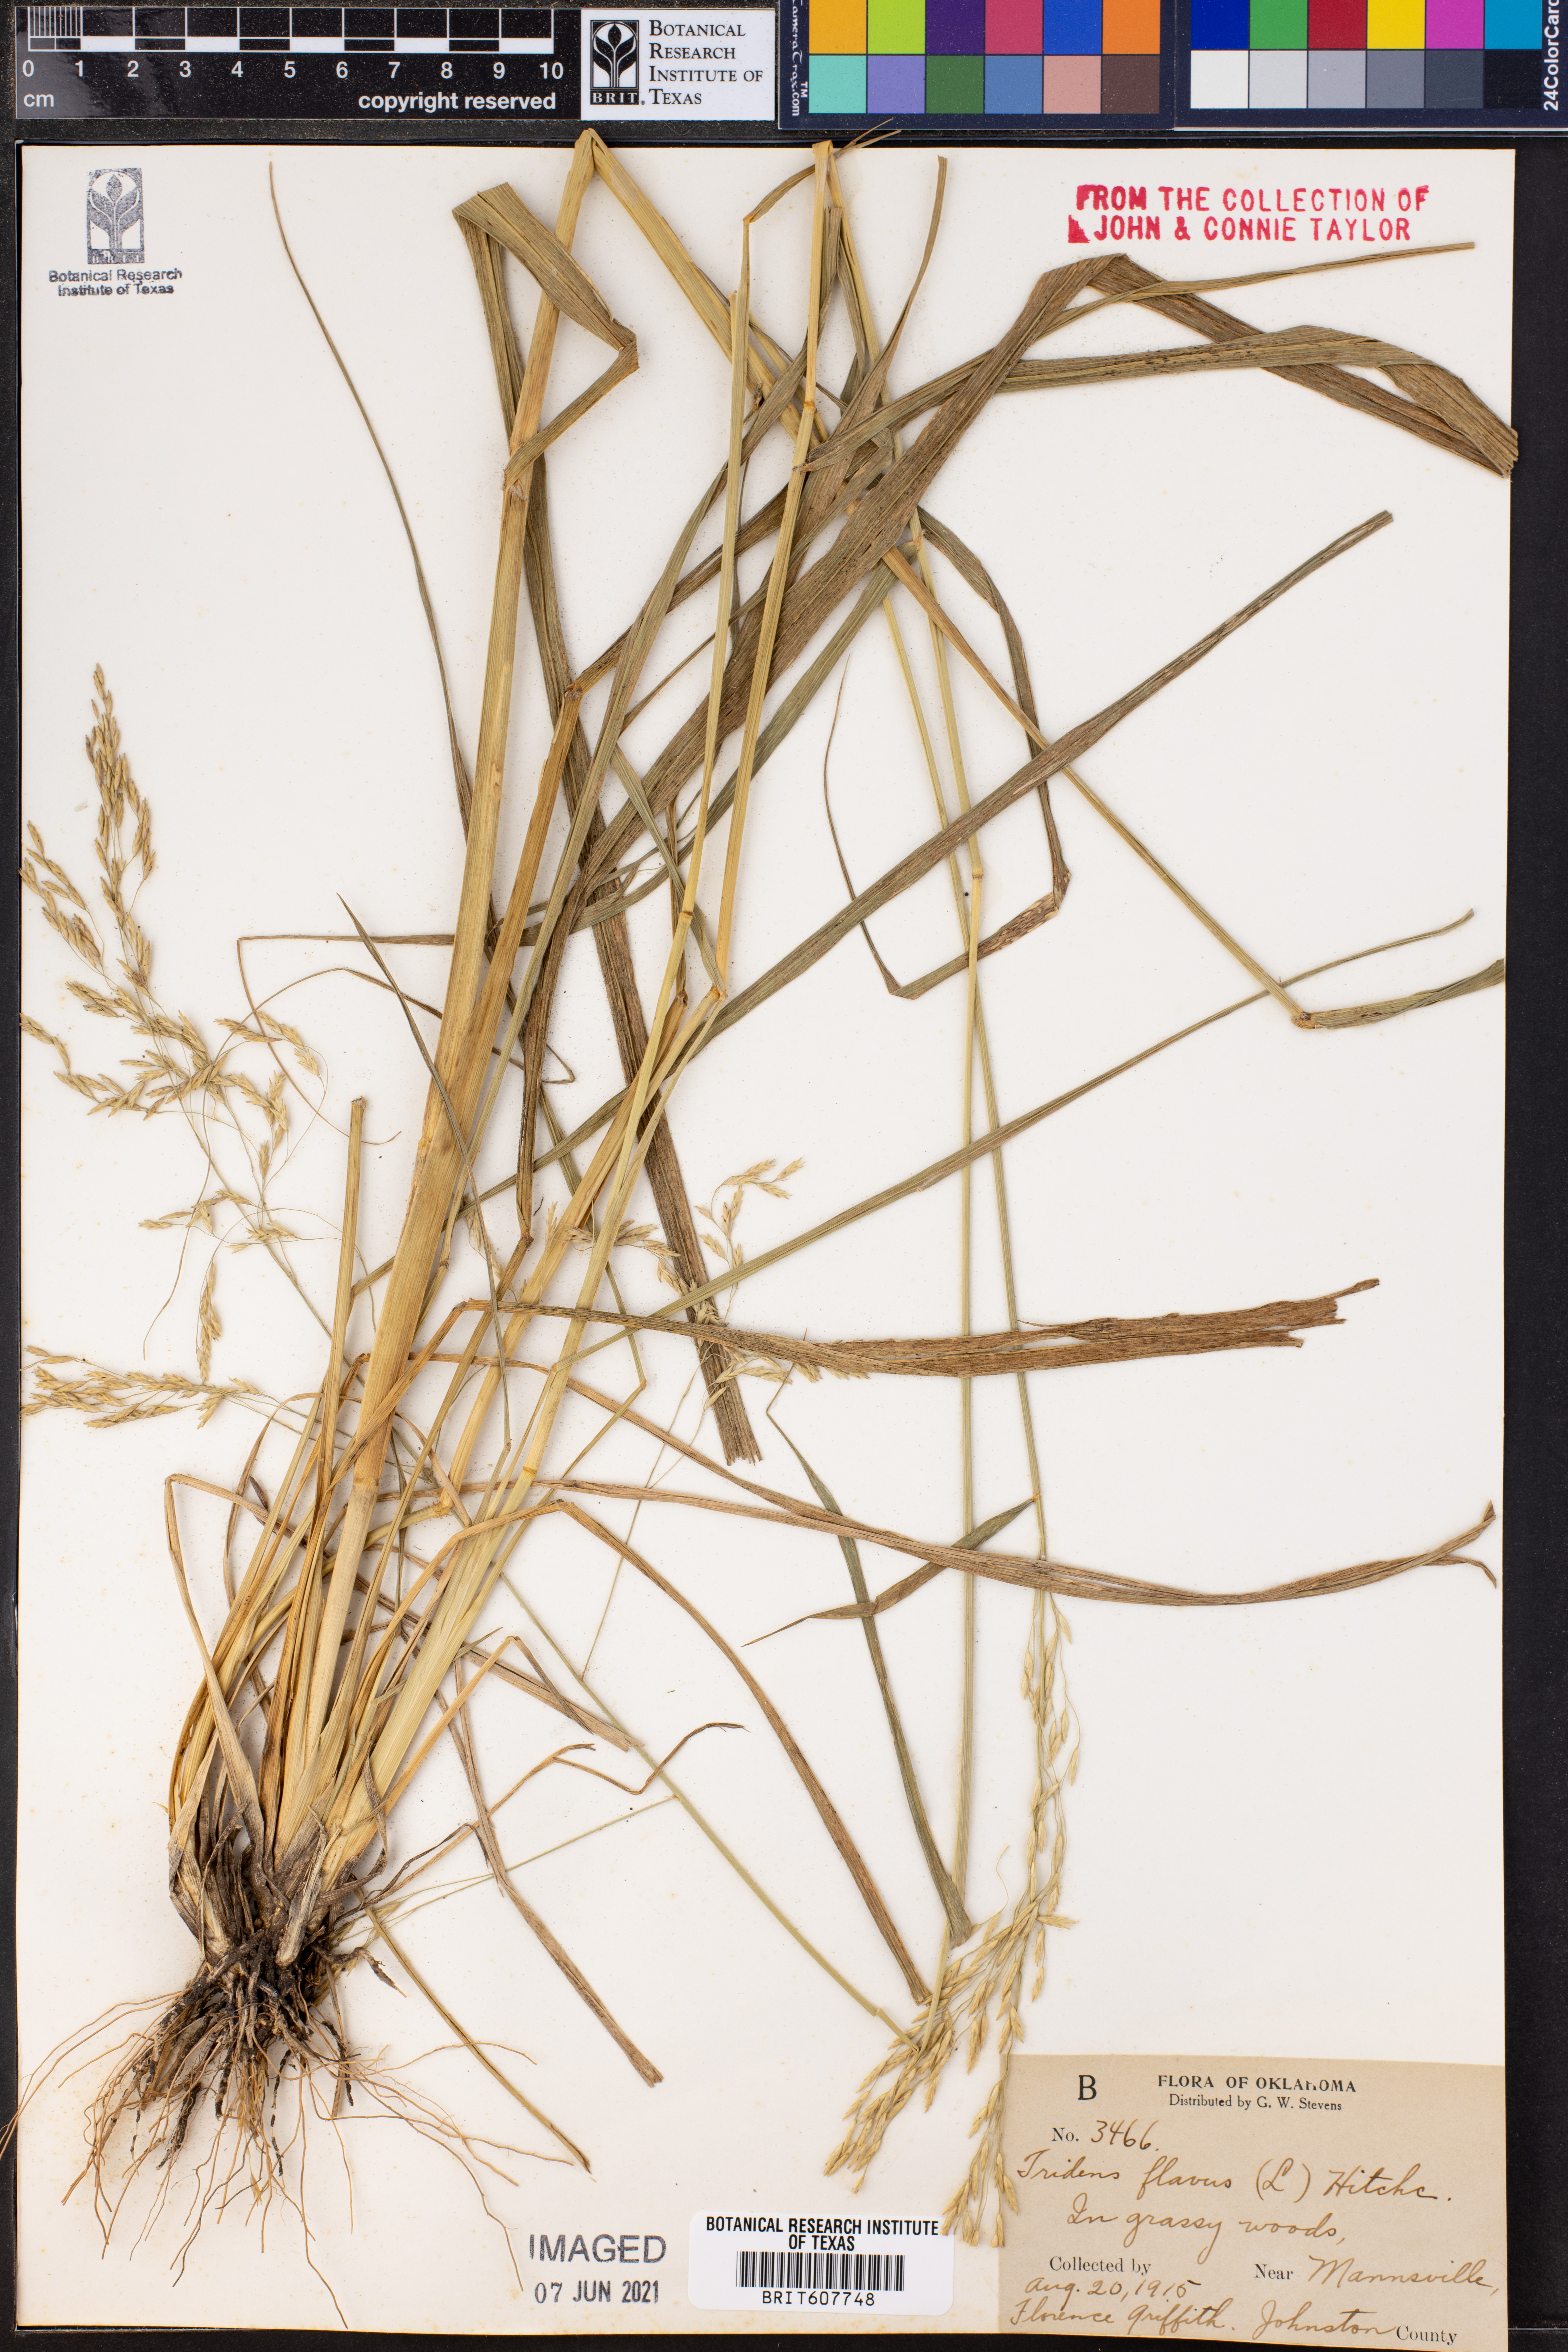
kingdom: Plantae
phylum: Tracheophyta
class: Liliopsida
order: Poales
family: Poaceae
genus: Tridens
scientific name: Tridens flavus
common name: Purpletop
